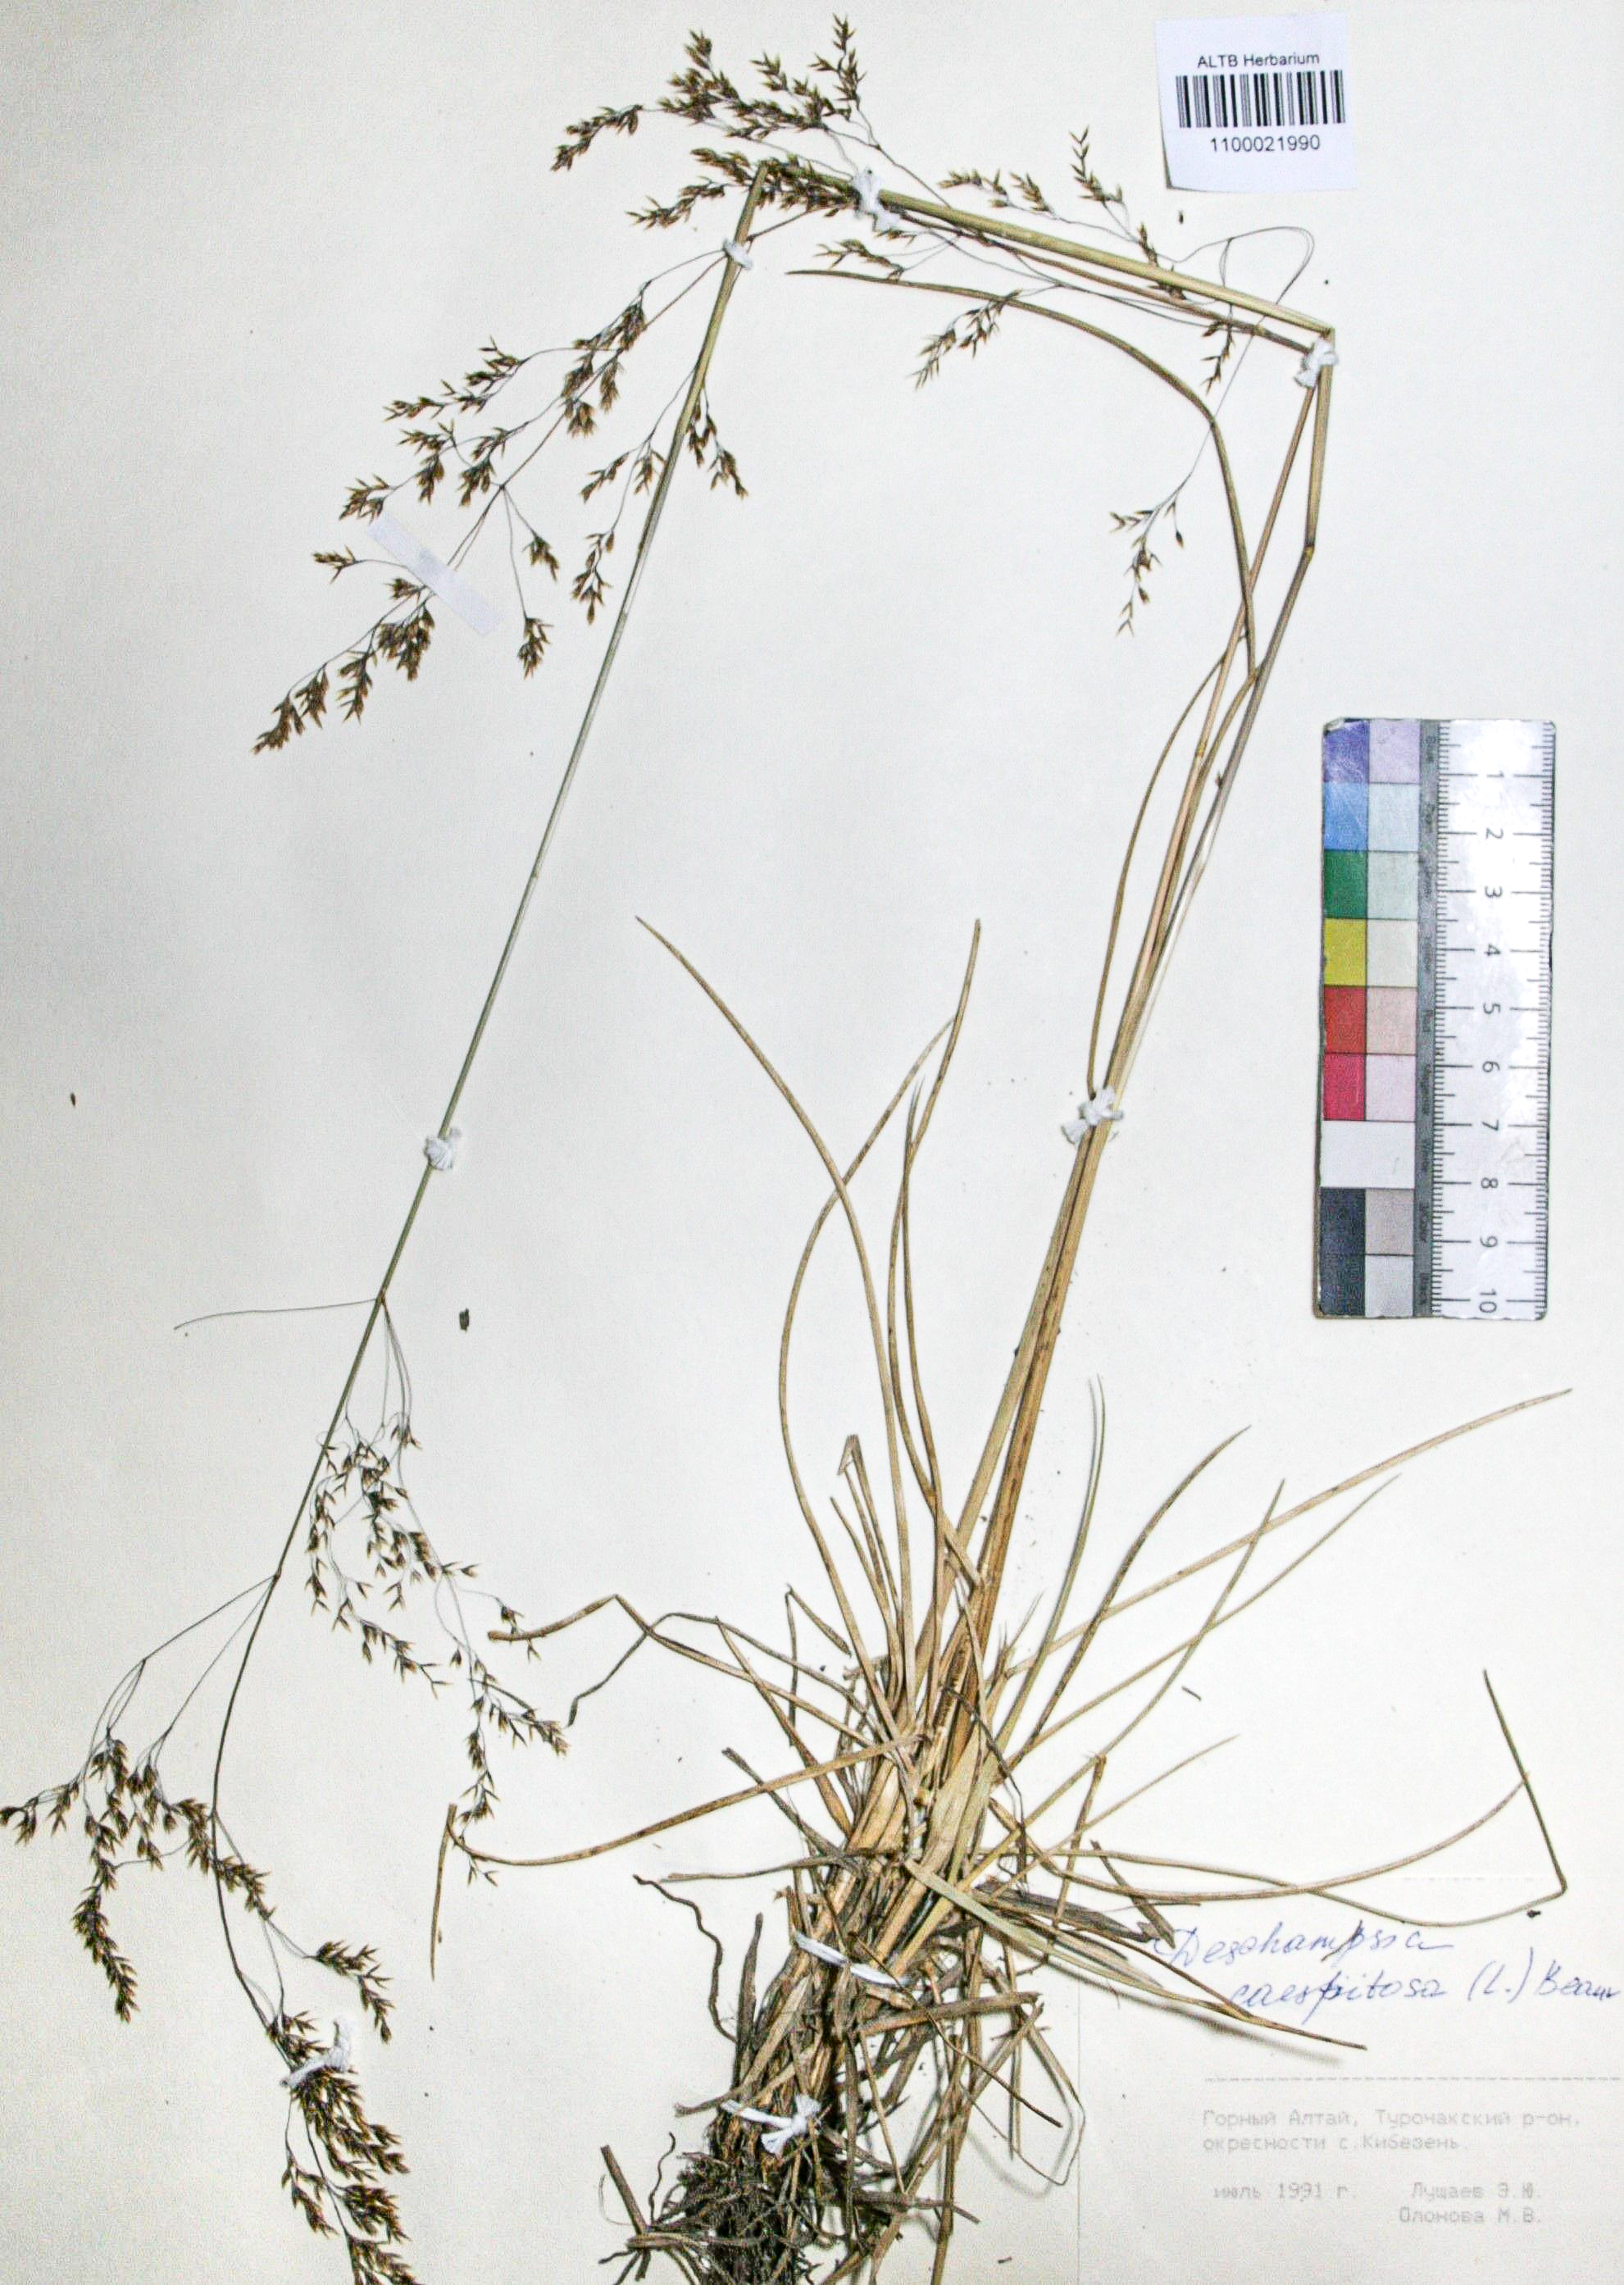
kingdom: Plantae
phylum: Tracheophyta
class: Liliopsida
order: Poales
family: Poaceae
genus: Deschampsia
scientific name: Deschampsia cespitosa
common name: Tufted hair-grass
